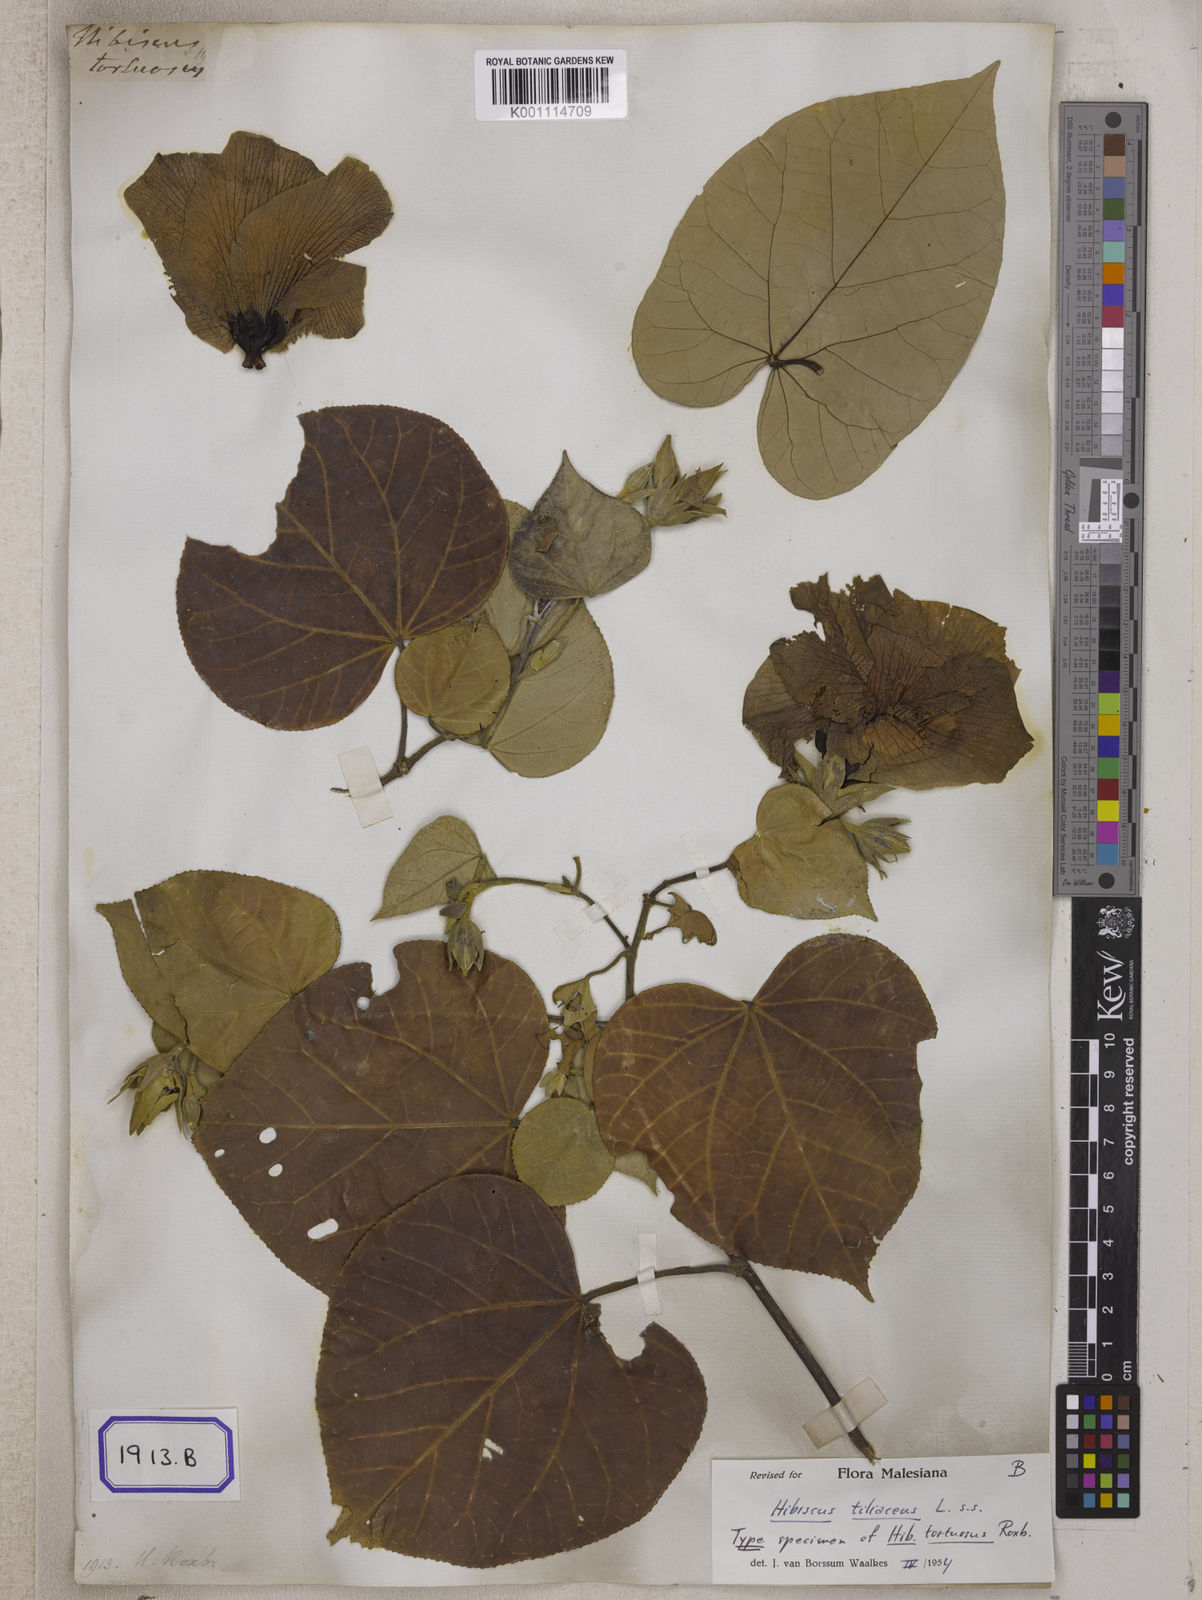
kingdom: Plantae
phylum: Tracheophyta
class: Magnoliopsida
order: Malvales
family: Malvaceae
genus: Talipariti
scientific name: Talipariti tortuosum
